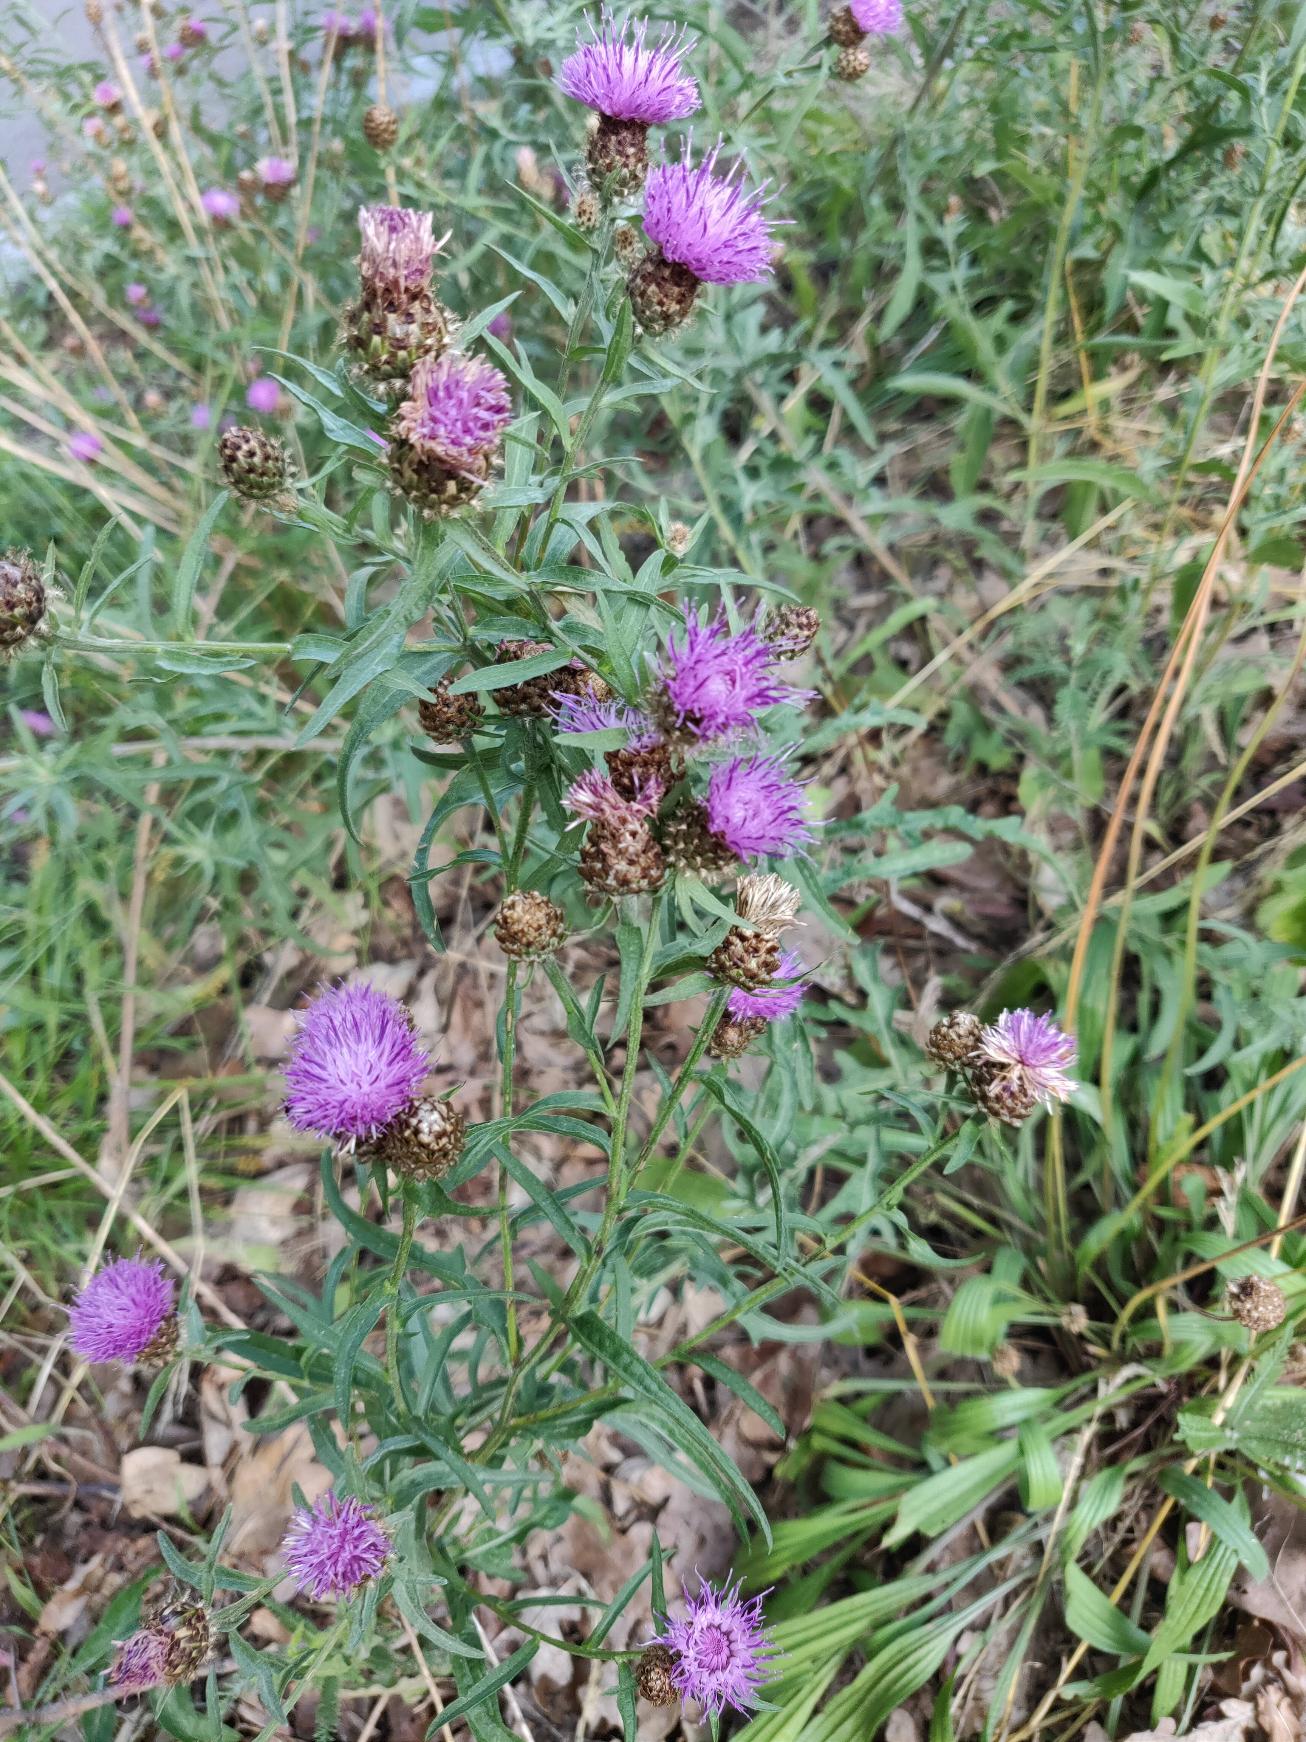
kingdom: Plantae
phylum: Tracheophyta
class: Magnoliopsida
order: Asterales
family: Asteraceae
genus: Centaurea
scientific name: Centaurea jacea
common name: Almindelig knopurt
